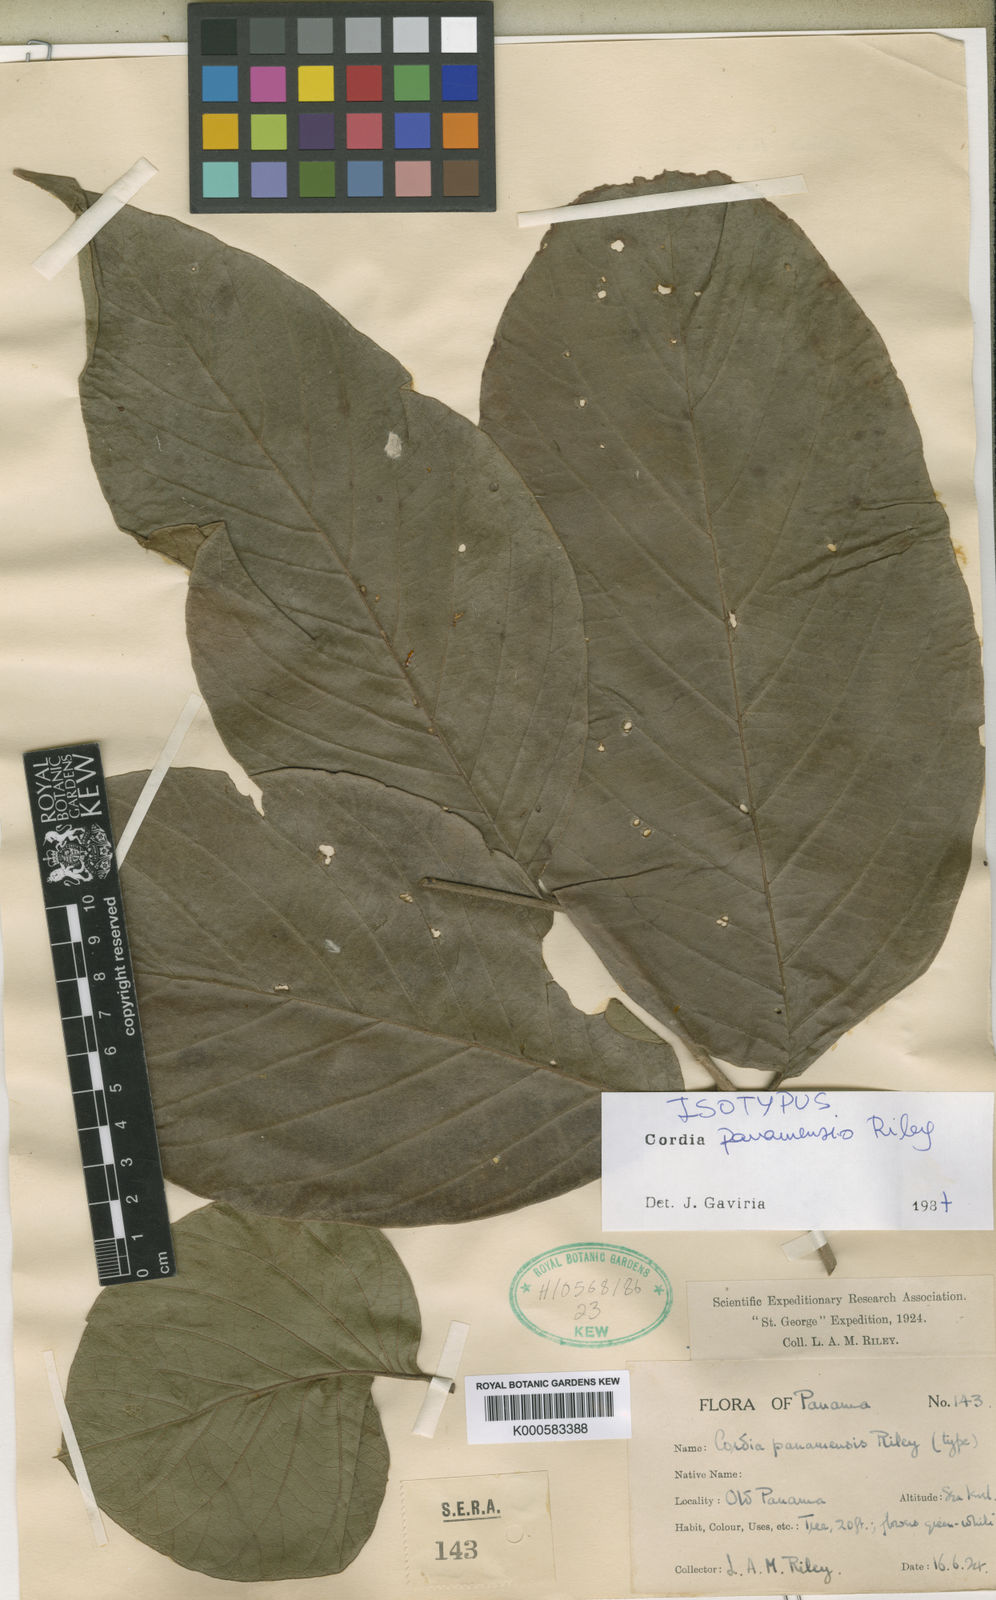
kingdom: Plantae
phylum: Tracheophyta
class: Magnoliopsida
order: Boraginales
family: Cordiaceae
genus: Cordia
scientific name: Cordia panamensis
